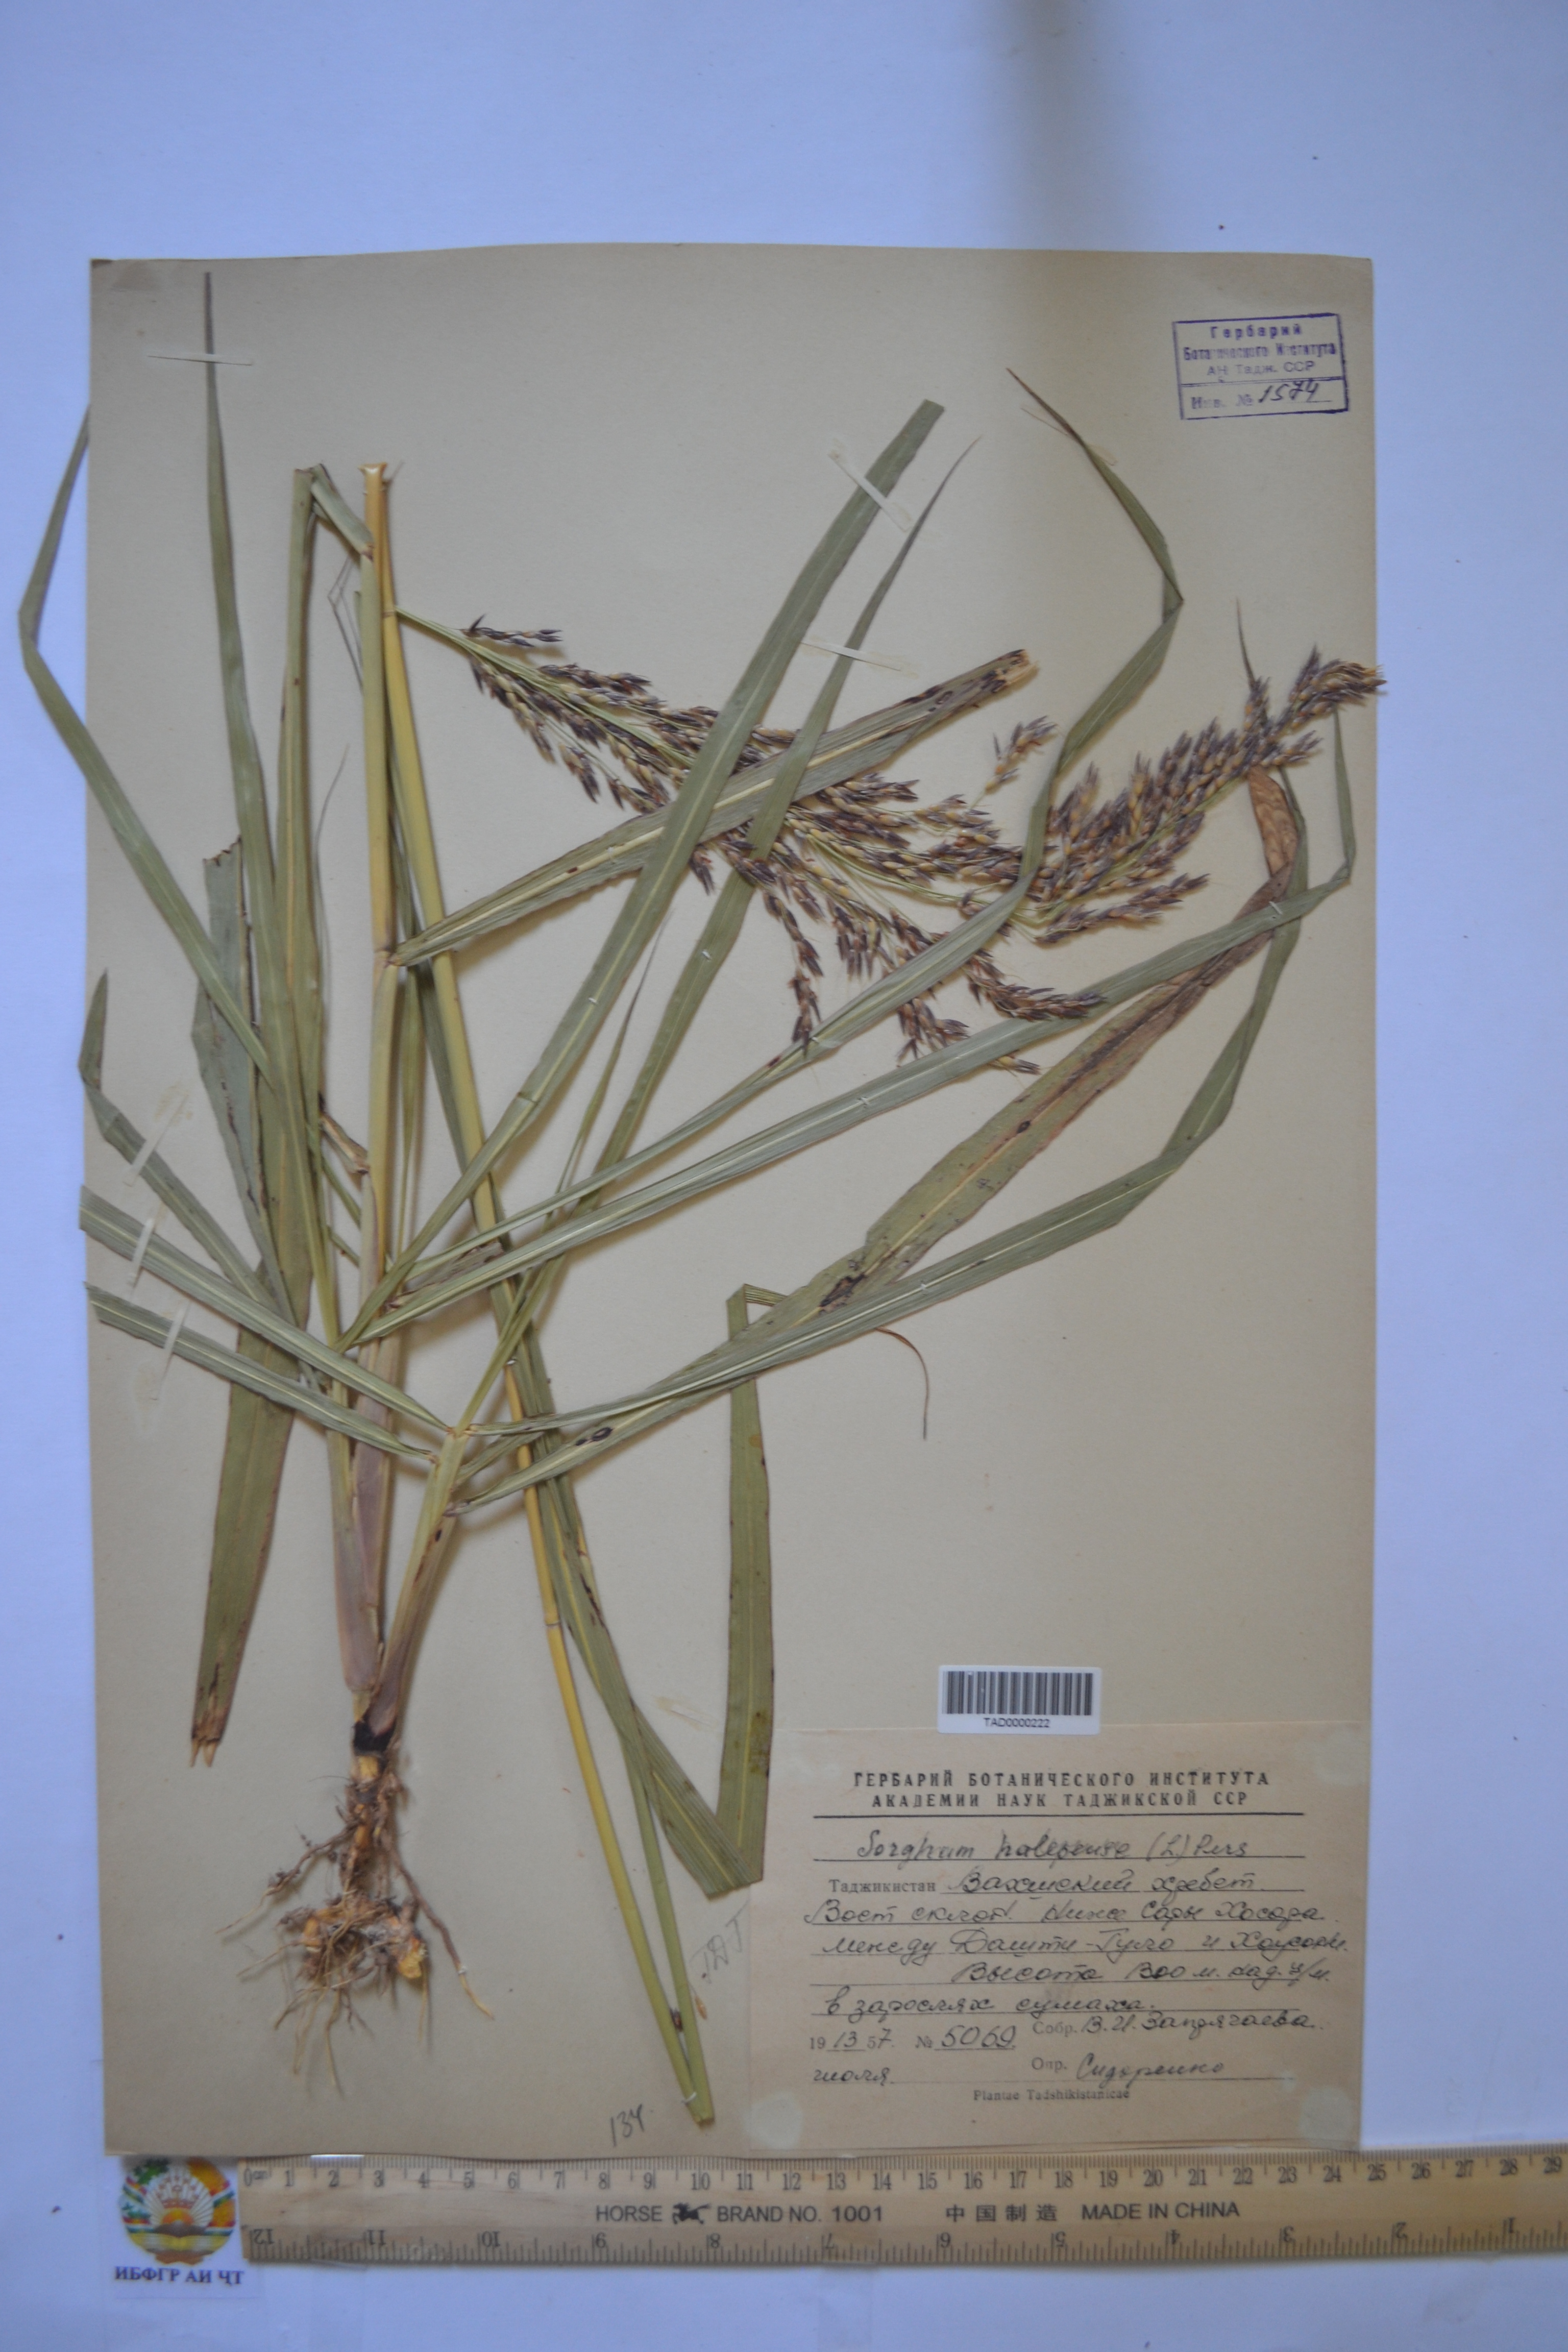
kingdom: Plantae
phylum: Tracheophyta
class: Liliopsida
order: Poales
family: Poaceae
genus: Sorghum
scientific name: Sorghum halepense
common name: Johnson-grass
